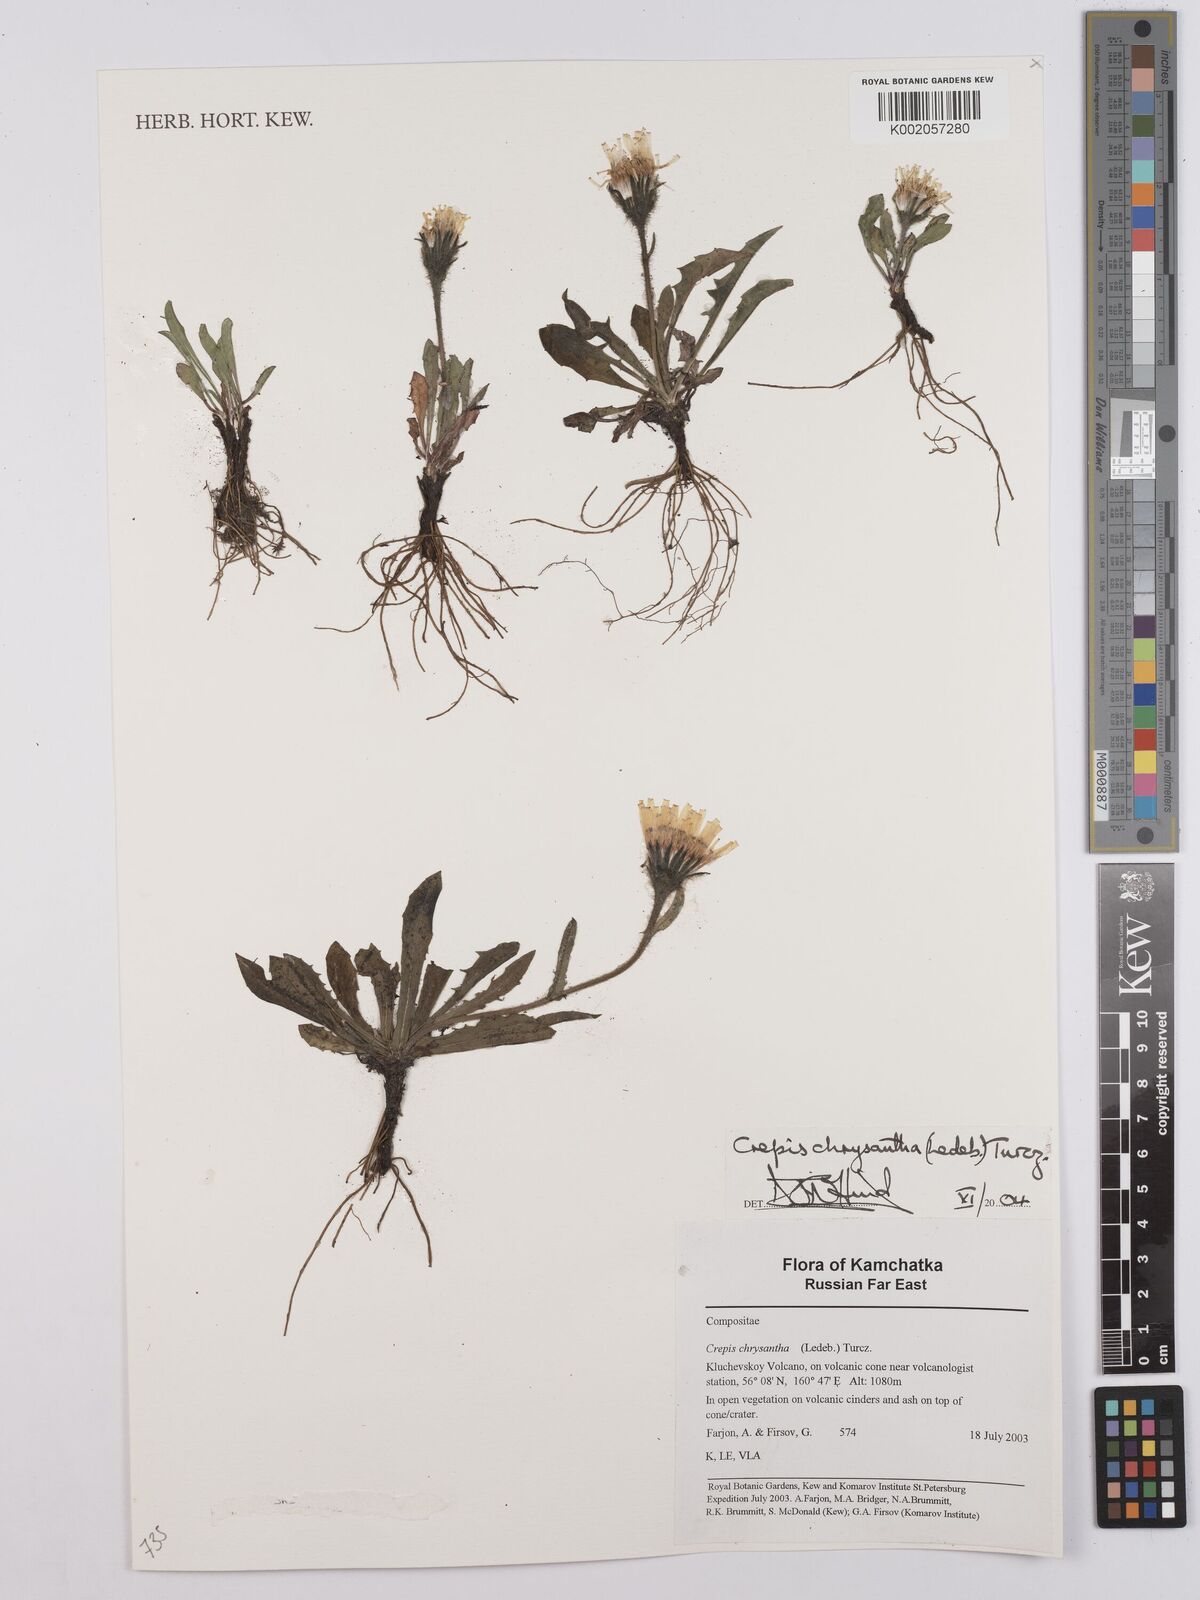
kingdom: Plantae
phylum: Tracheophyta
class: Magnoliopsida
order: Asterales
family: Asteraceae
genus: Crepis
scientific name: Crepis chrysantha
